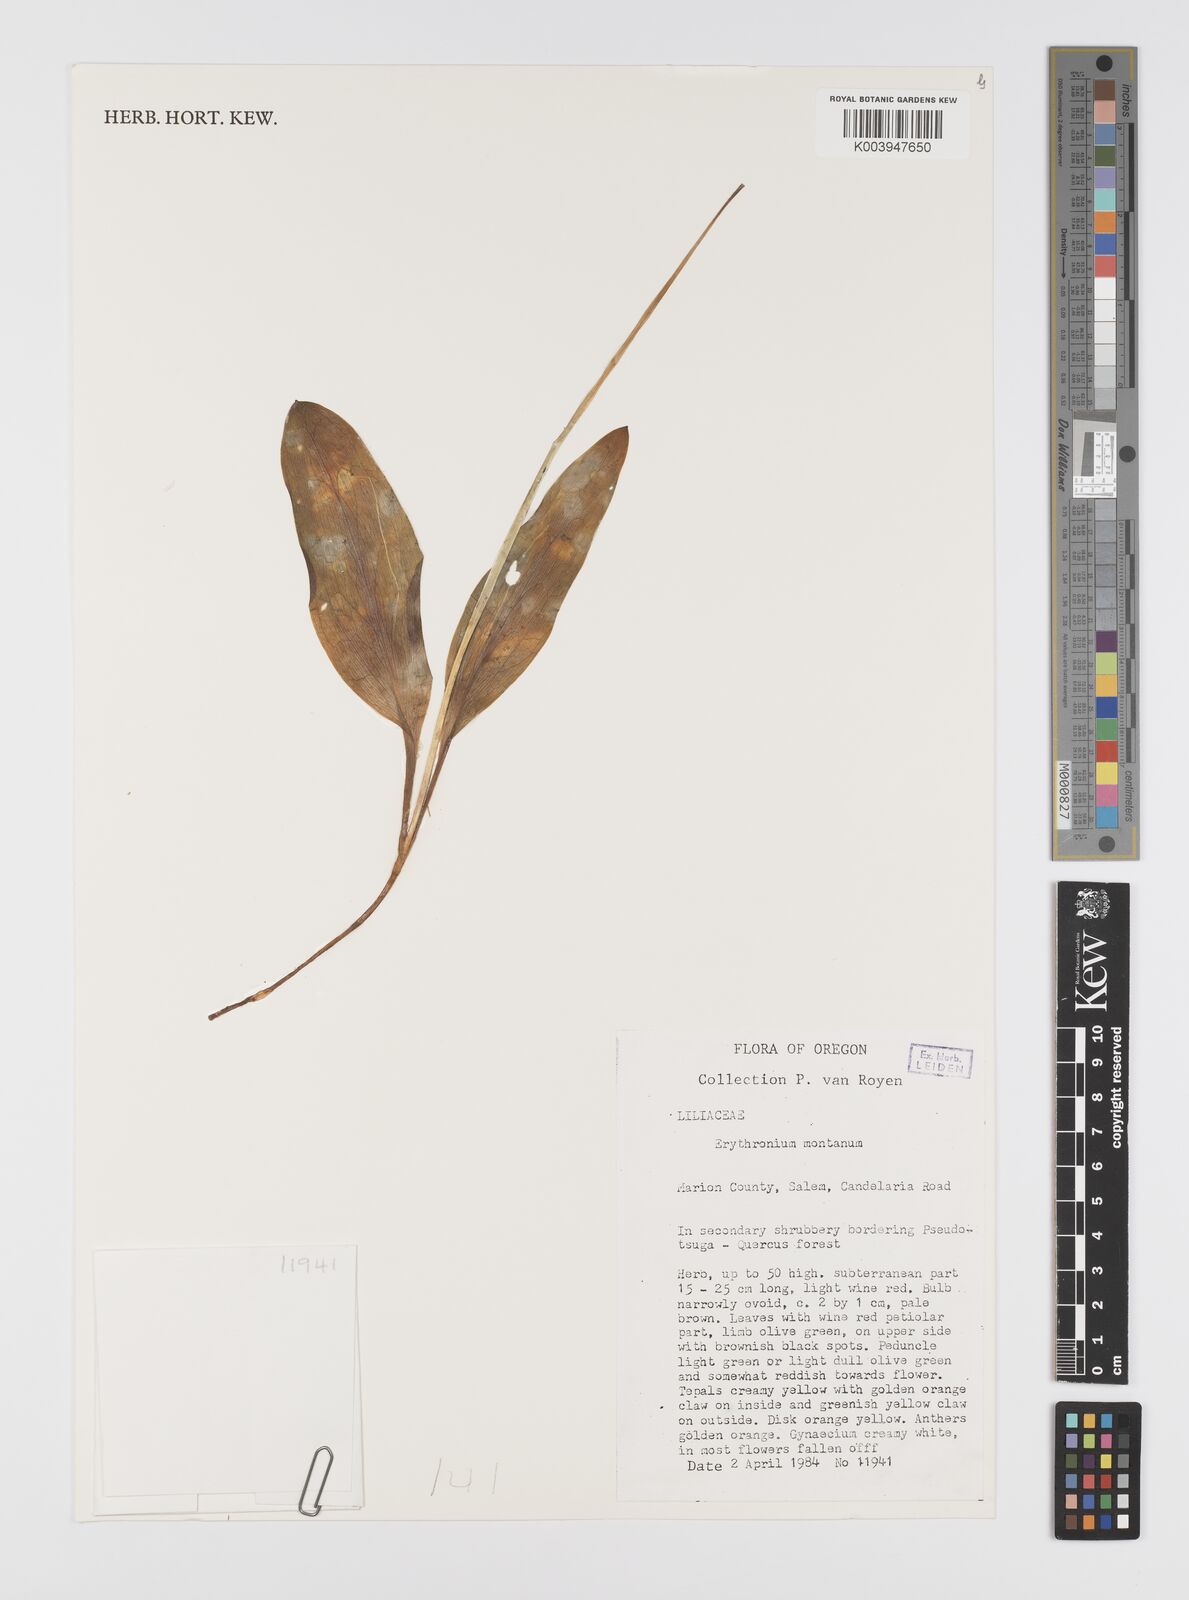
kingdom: Plantae
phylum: Tracheophyta
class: Liliopsida
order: Liliales
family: Liliaceae
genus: Erythronium
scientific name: Erythronium montanum
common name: Avalanche lily
